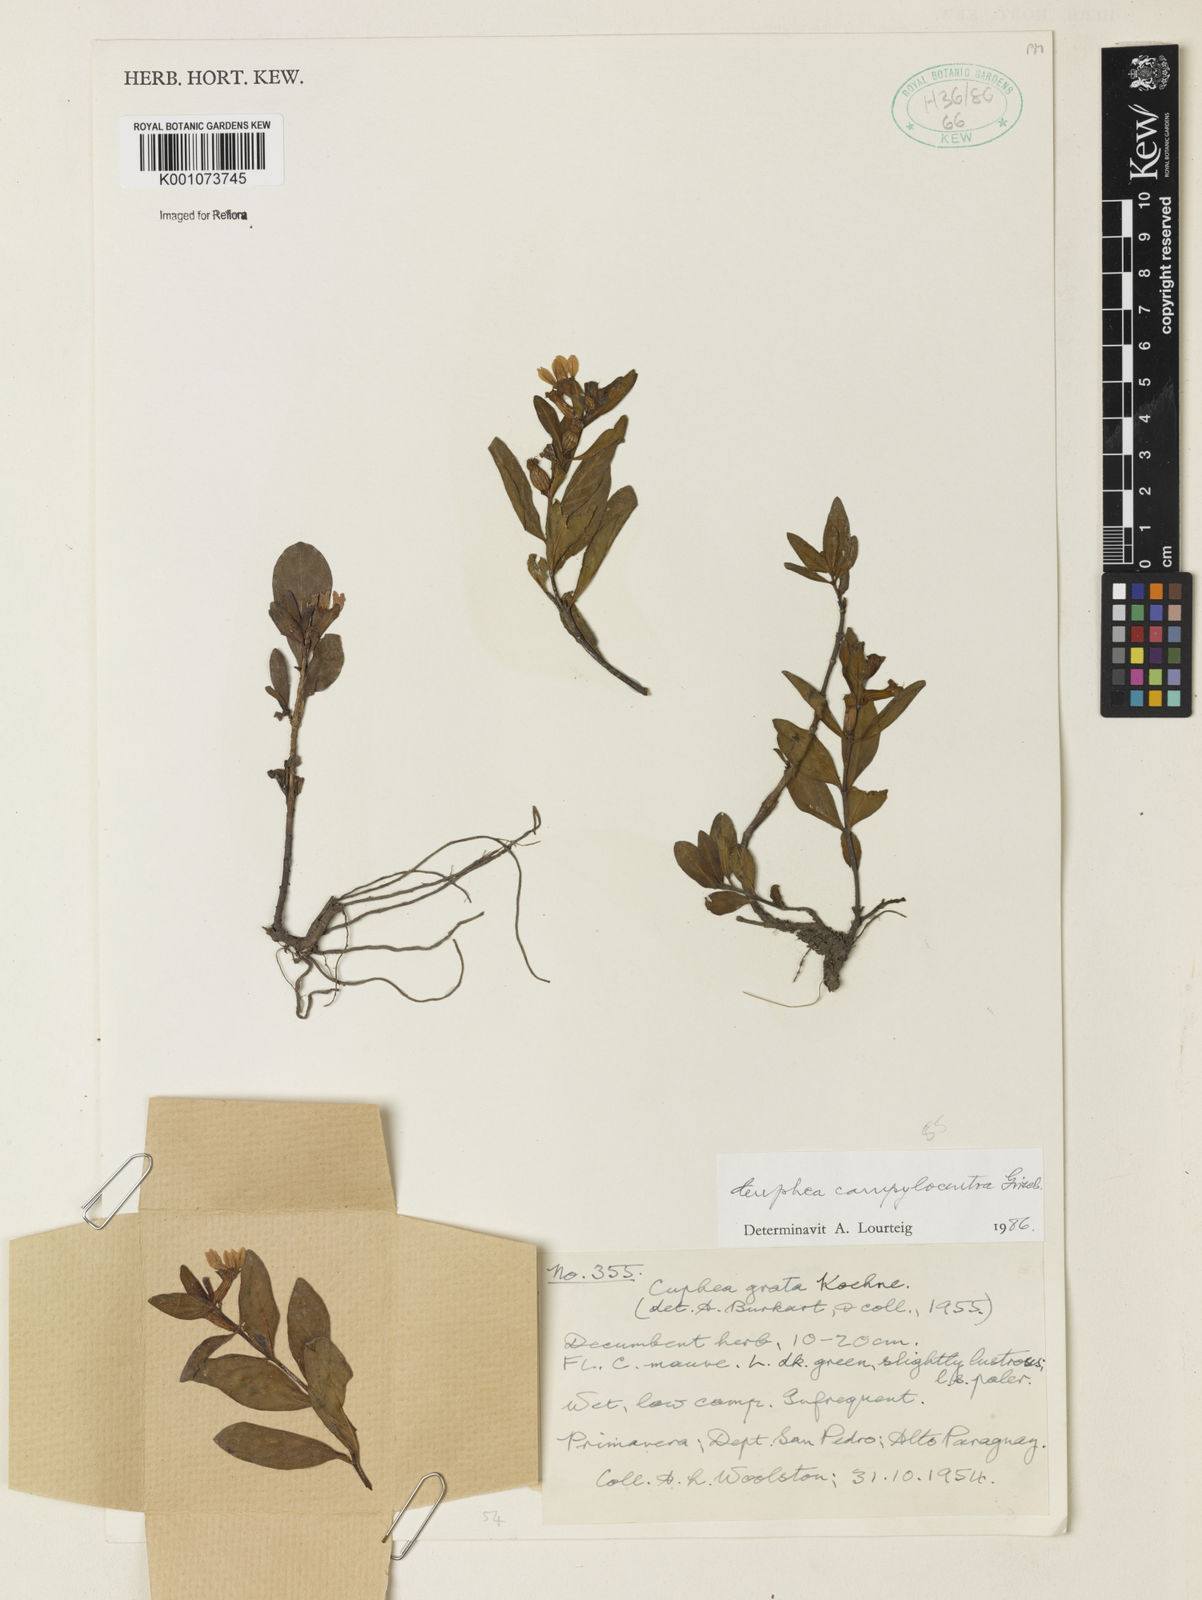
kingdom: Plantae
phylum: Tracheophyta
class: Magnoliopsida
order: Myrtales
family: Lythraceae
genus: Cuphea
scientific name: Cuphea campylocentra
